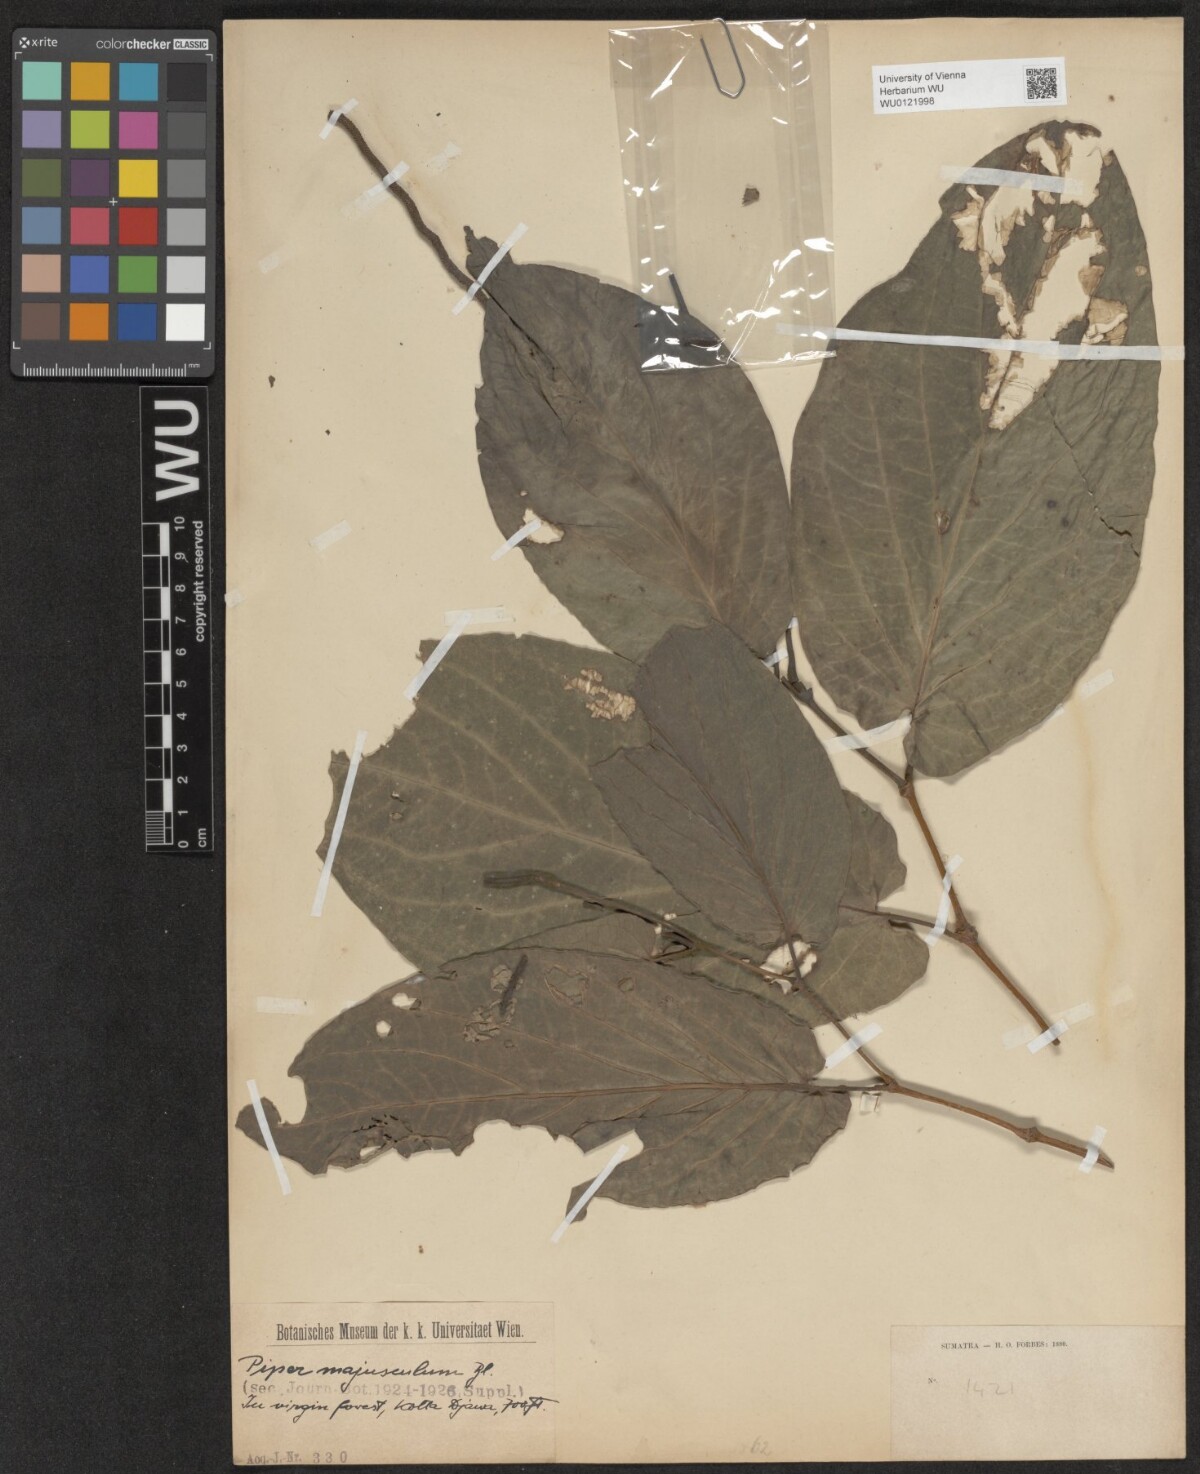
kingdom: Plantae
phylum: Tracheophyta
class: Magnoliopsida
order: Piperales
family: Piperaceae
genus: Piper
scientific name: Piper majusculum
